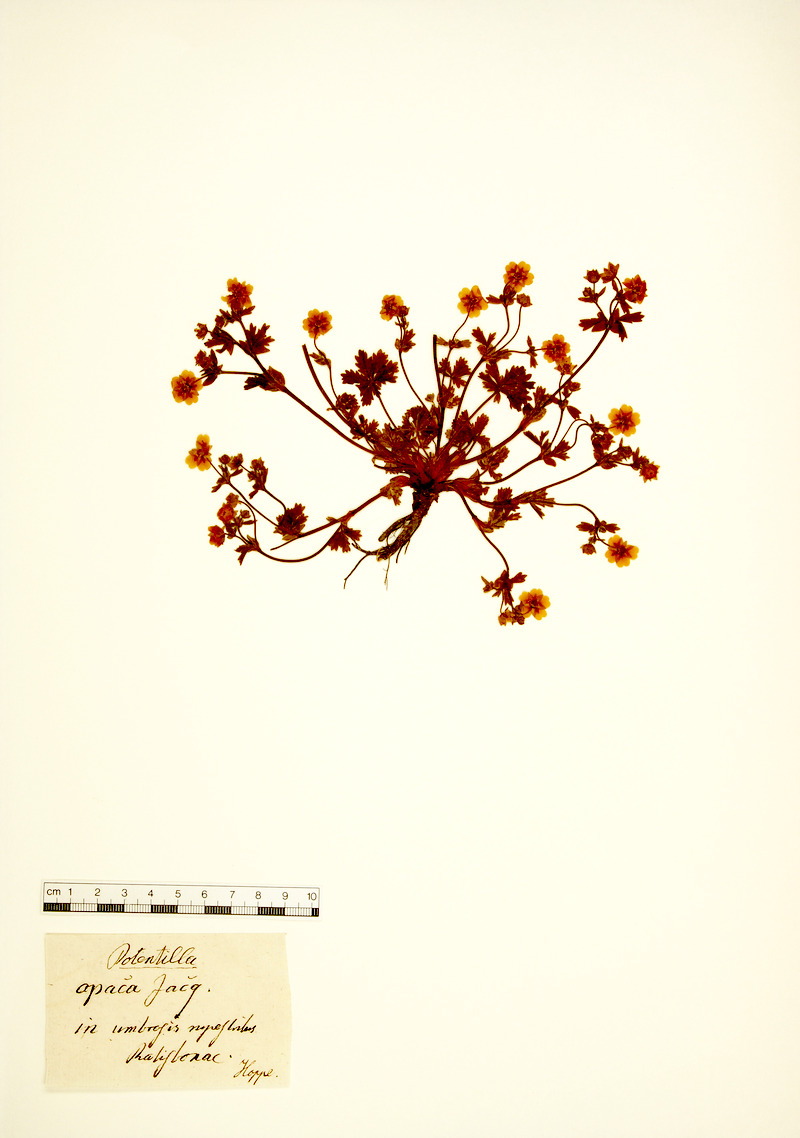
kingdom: Plantae
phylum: Tracheophyta
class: Magnoliopsida
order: Rosales
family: Rosaceae
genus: Potentilla
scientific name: Potentilla heptaphylla
